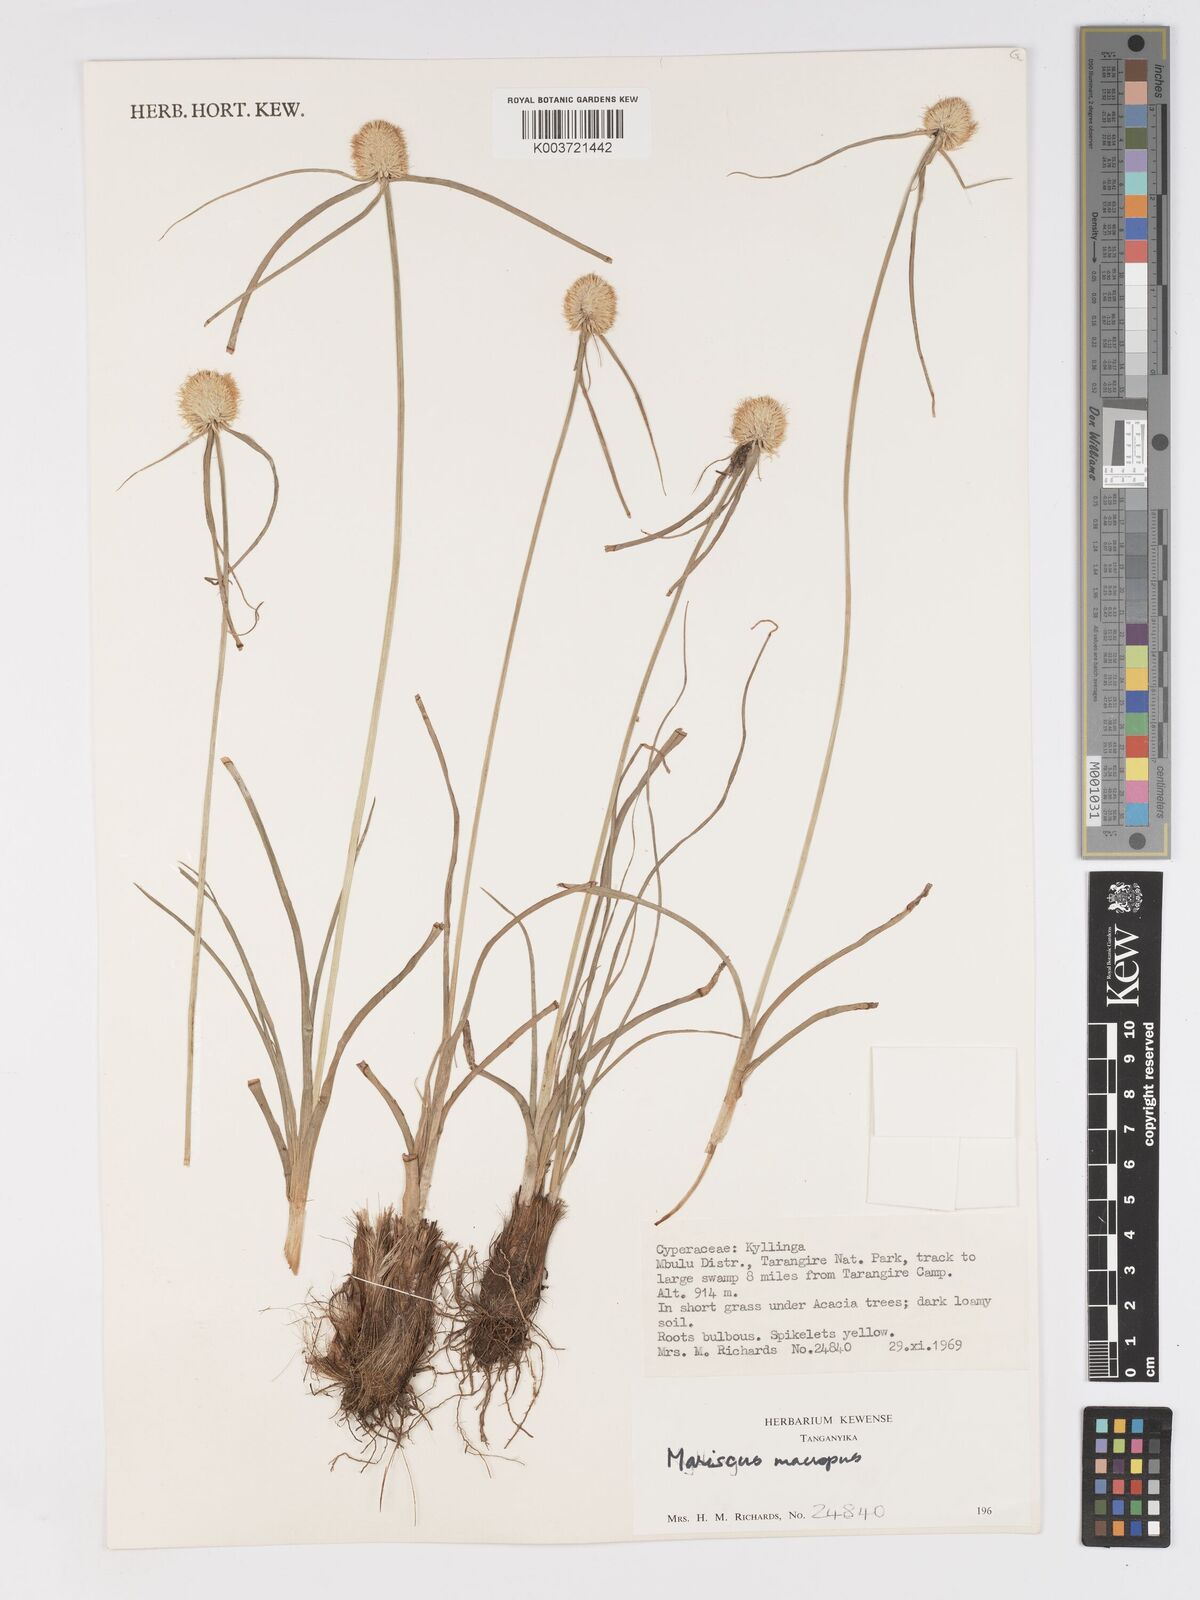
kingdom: Plantae
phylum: Tracheophyta
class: Liliopsida
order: Poales
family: Cyperaceae
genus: Cyperus
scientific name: Cyperus mollipes
